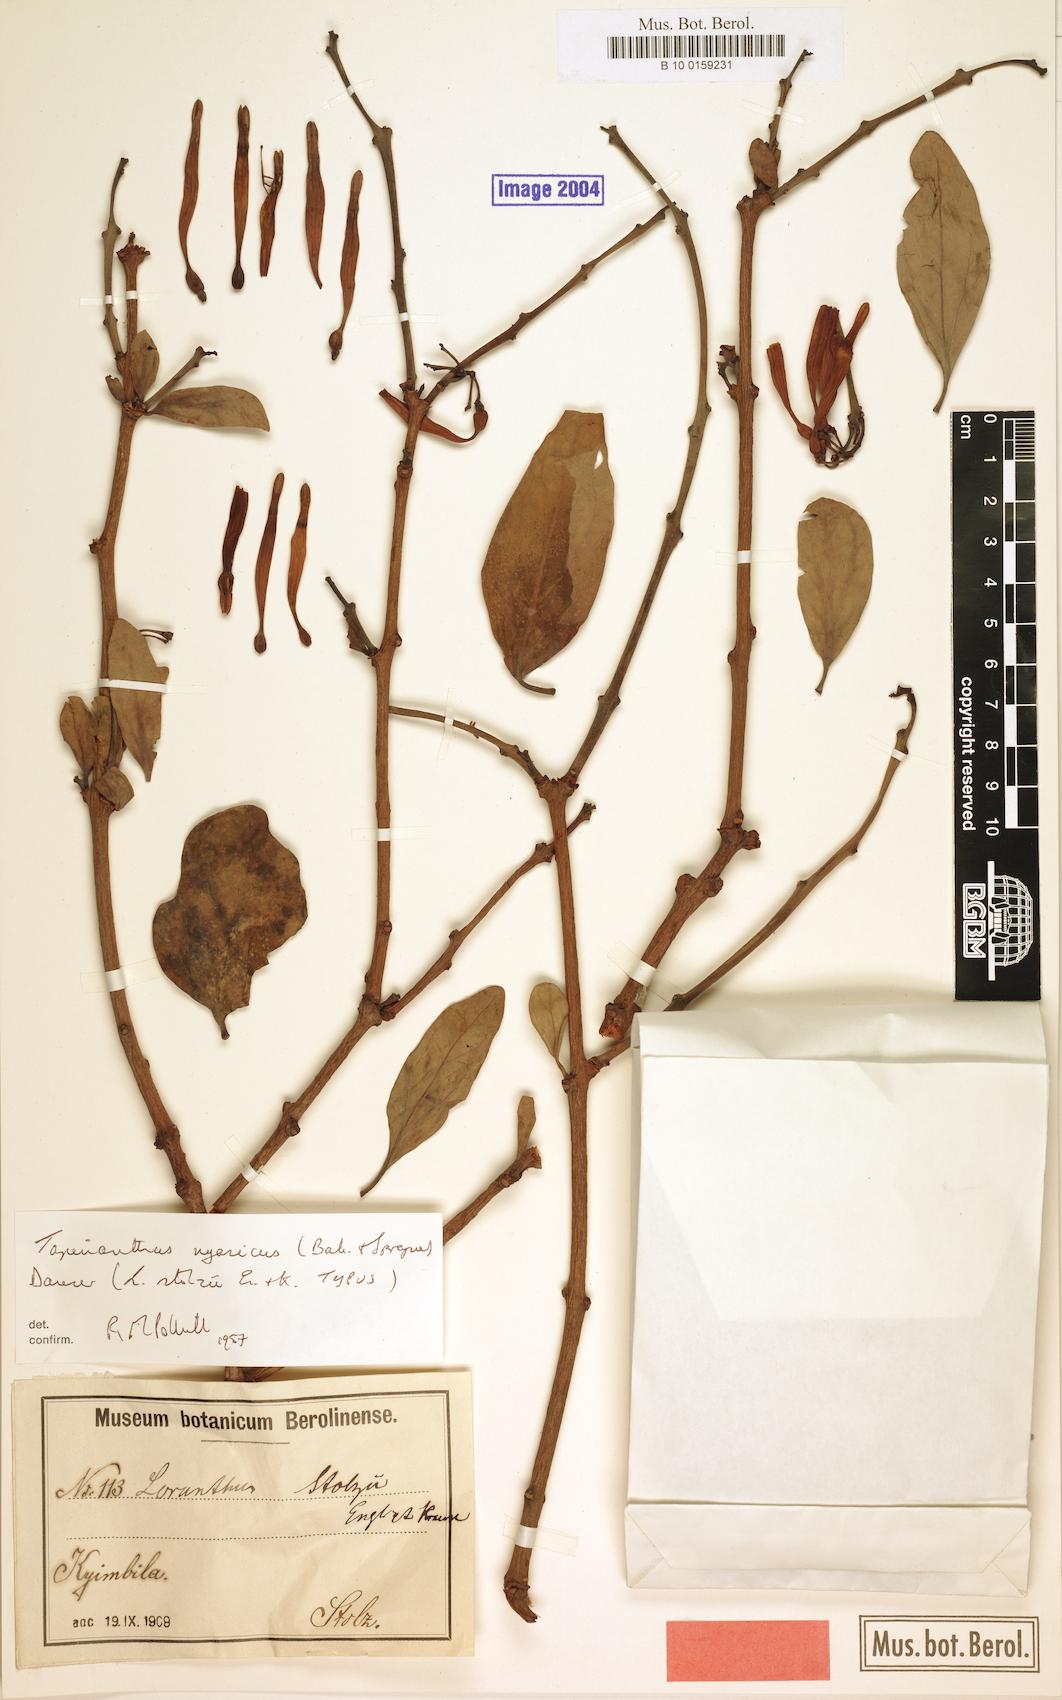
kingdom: Plantae
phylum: Tracheophyta
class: Magnoliopsida
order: Santalales
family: Loranthaceae
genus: Agelanthus
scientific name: Agelanthus nyasicus
